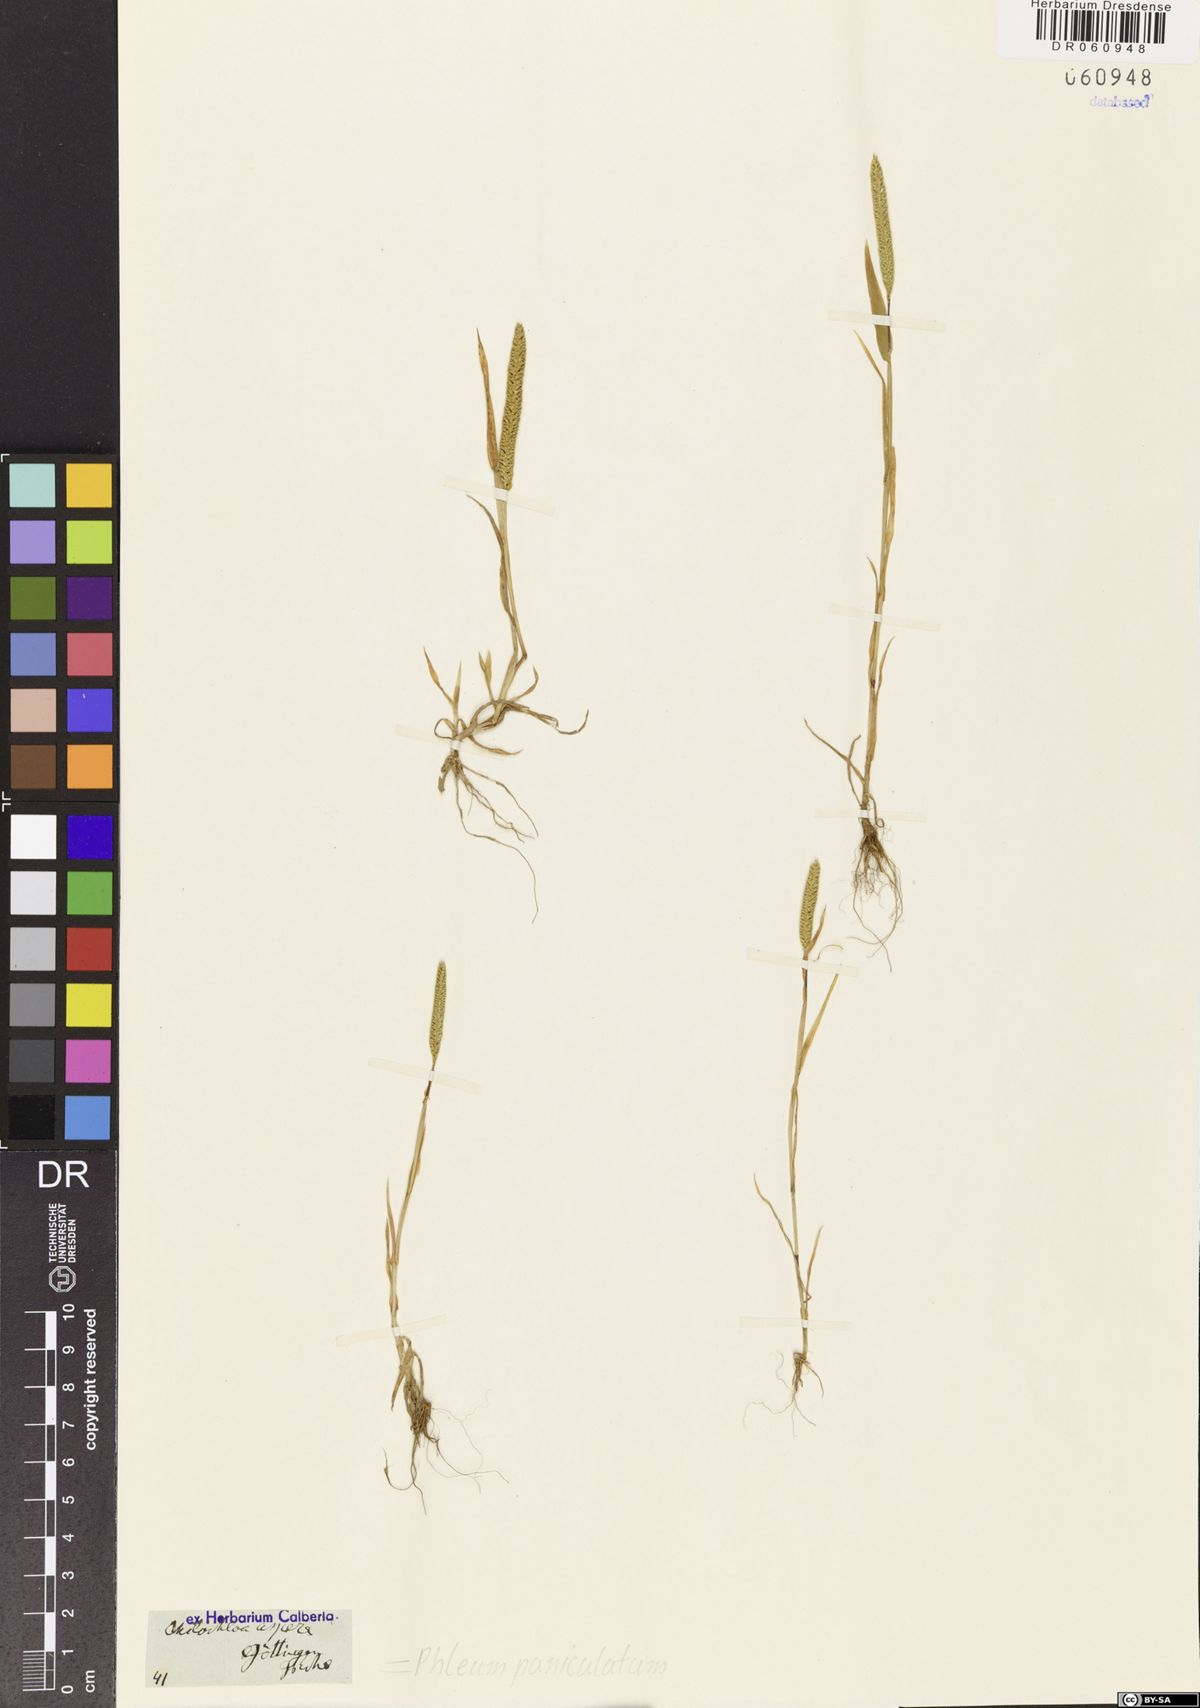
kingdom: Plantae
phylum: Tracheophyta
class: Liliopsida
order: Poales
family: Poaceae
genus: Phleum
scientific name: Phleum paniculatum
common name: British timothy
